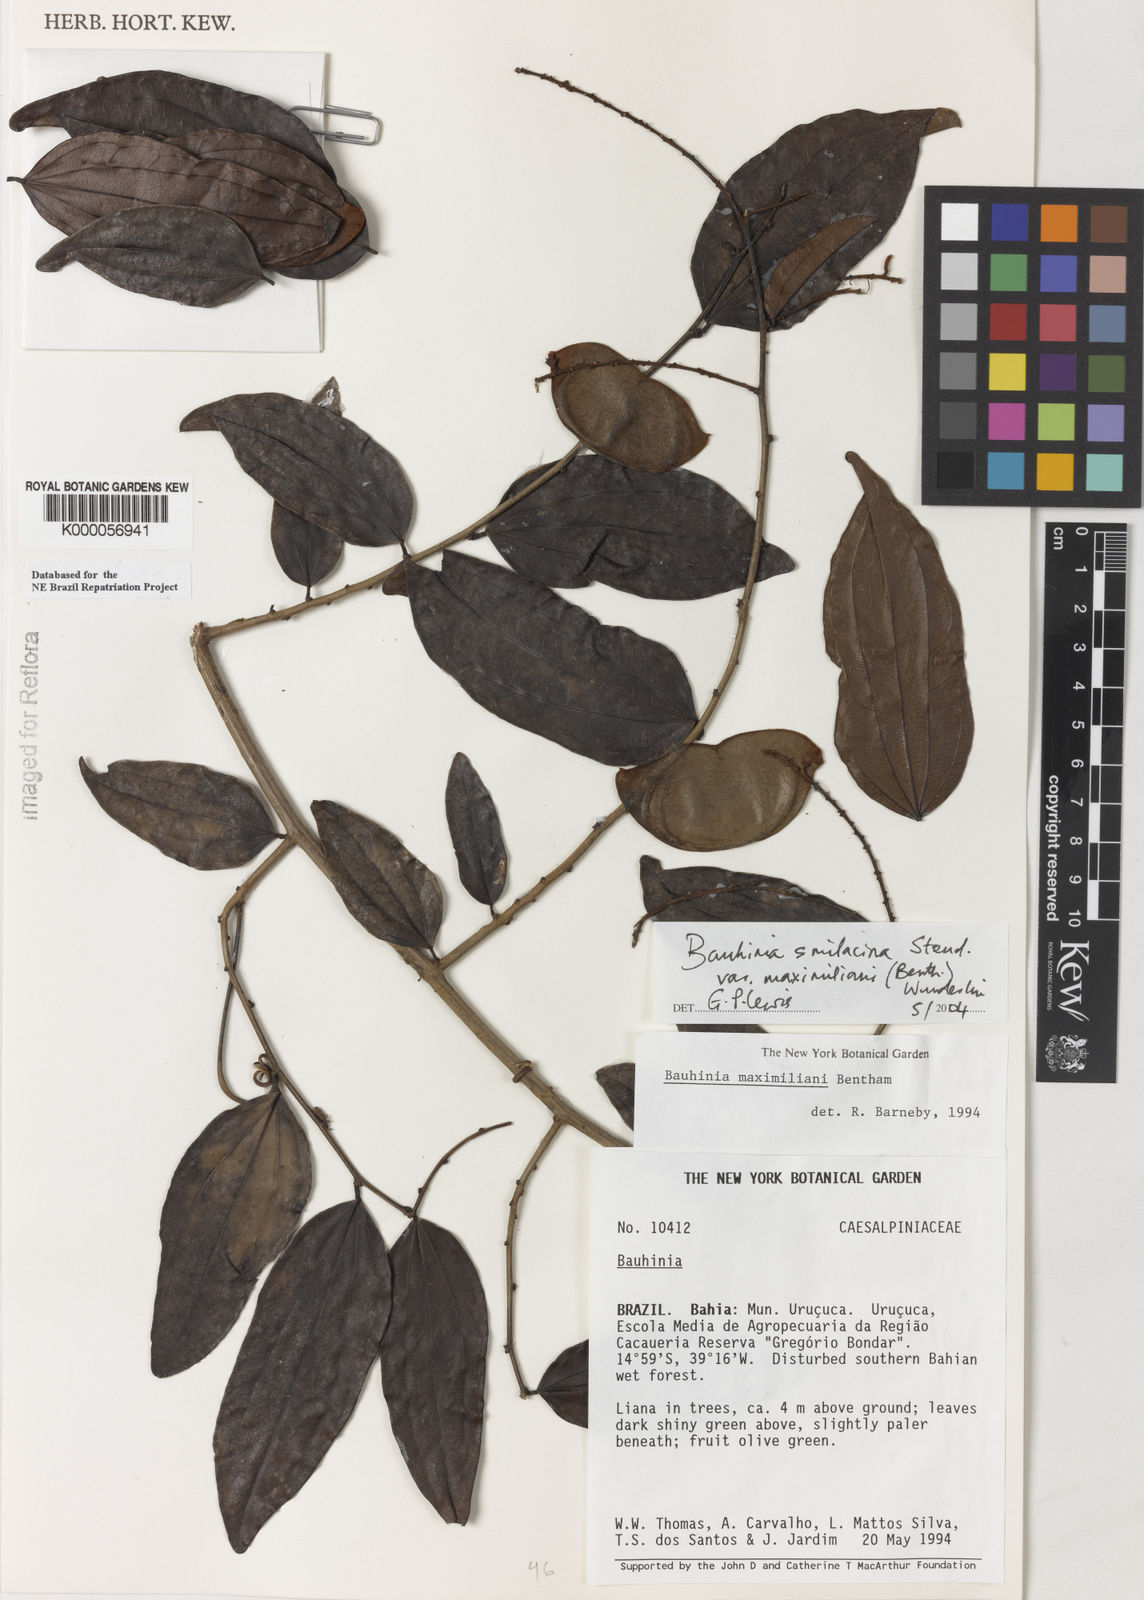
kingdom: Plantae
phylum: Tracheophyta
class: Magnoliopsida
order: Fabales
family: Fabaceae
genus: Schnella
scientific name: Schnella maximiliani
